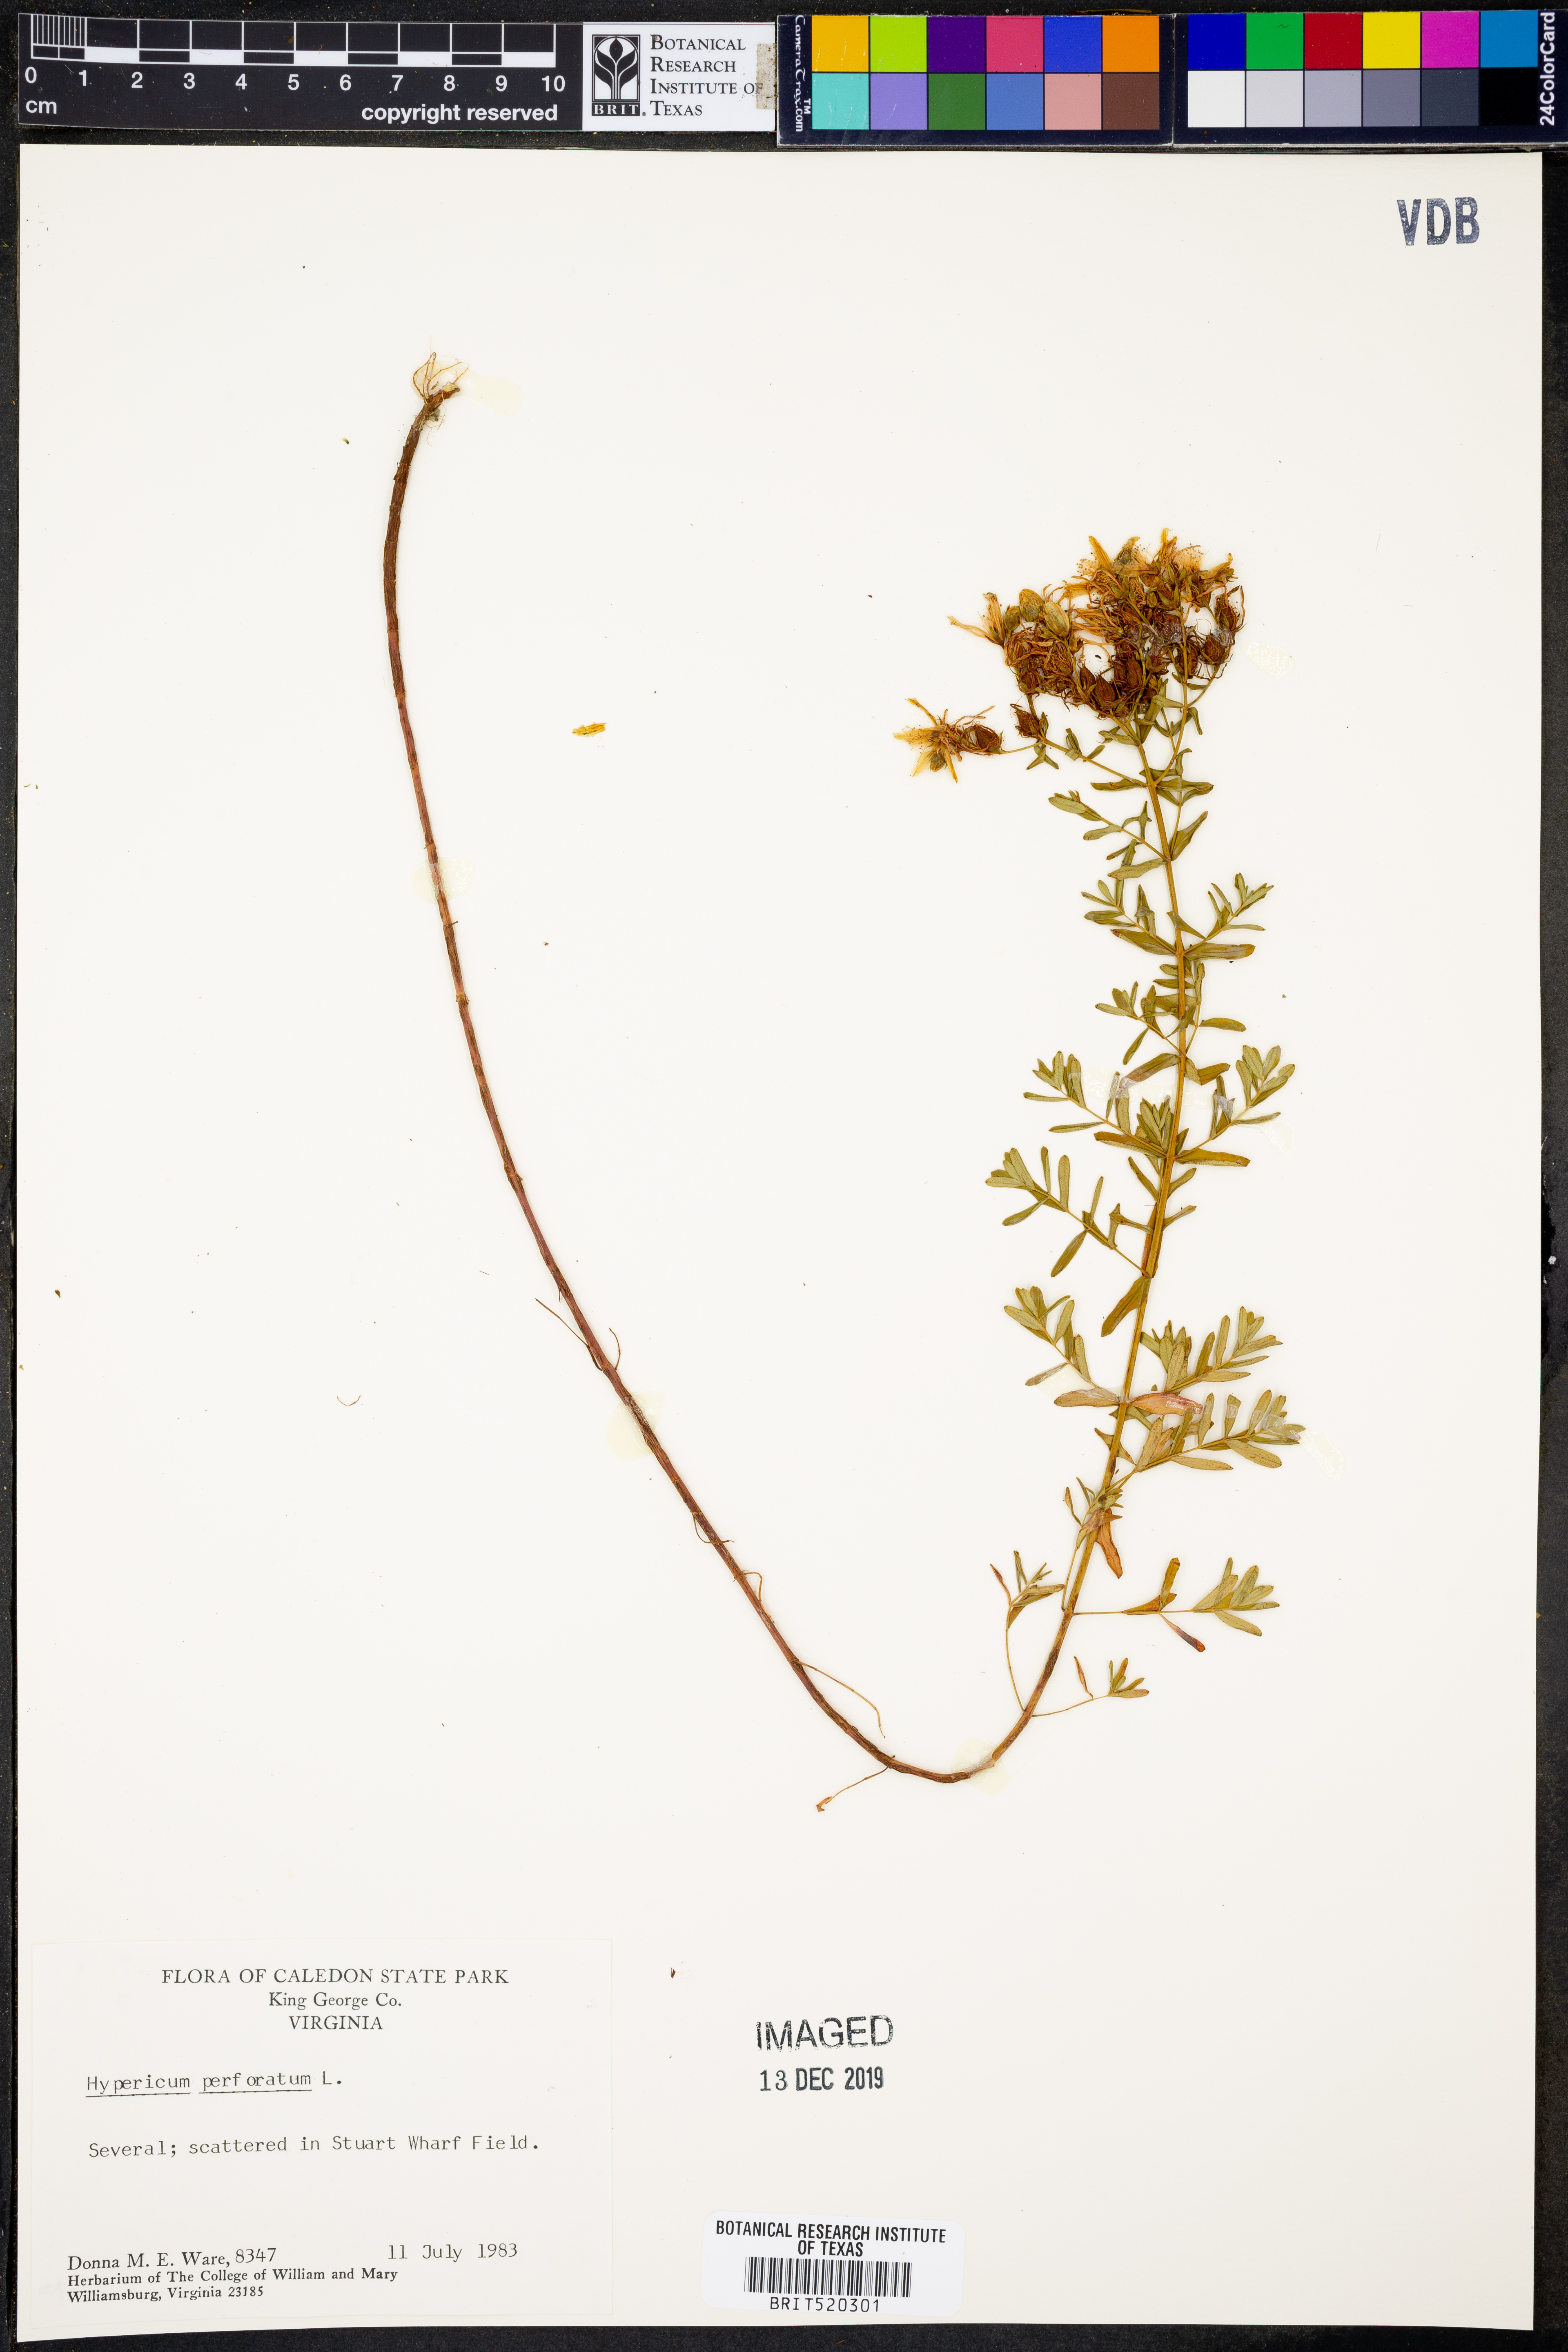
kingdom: Plantae
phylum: Tracheophyta
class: Magnoliopsida
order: Malpighiales
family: Hypericaceae
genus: Hypericum
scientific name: Hypericum perforatum
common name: Common st. johnswort
